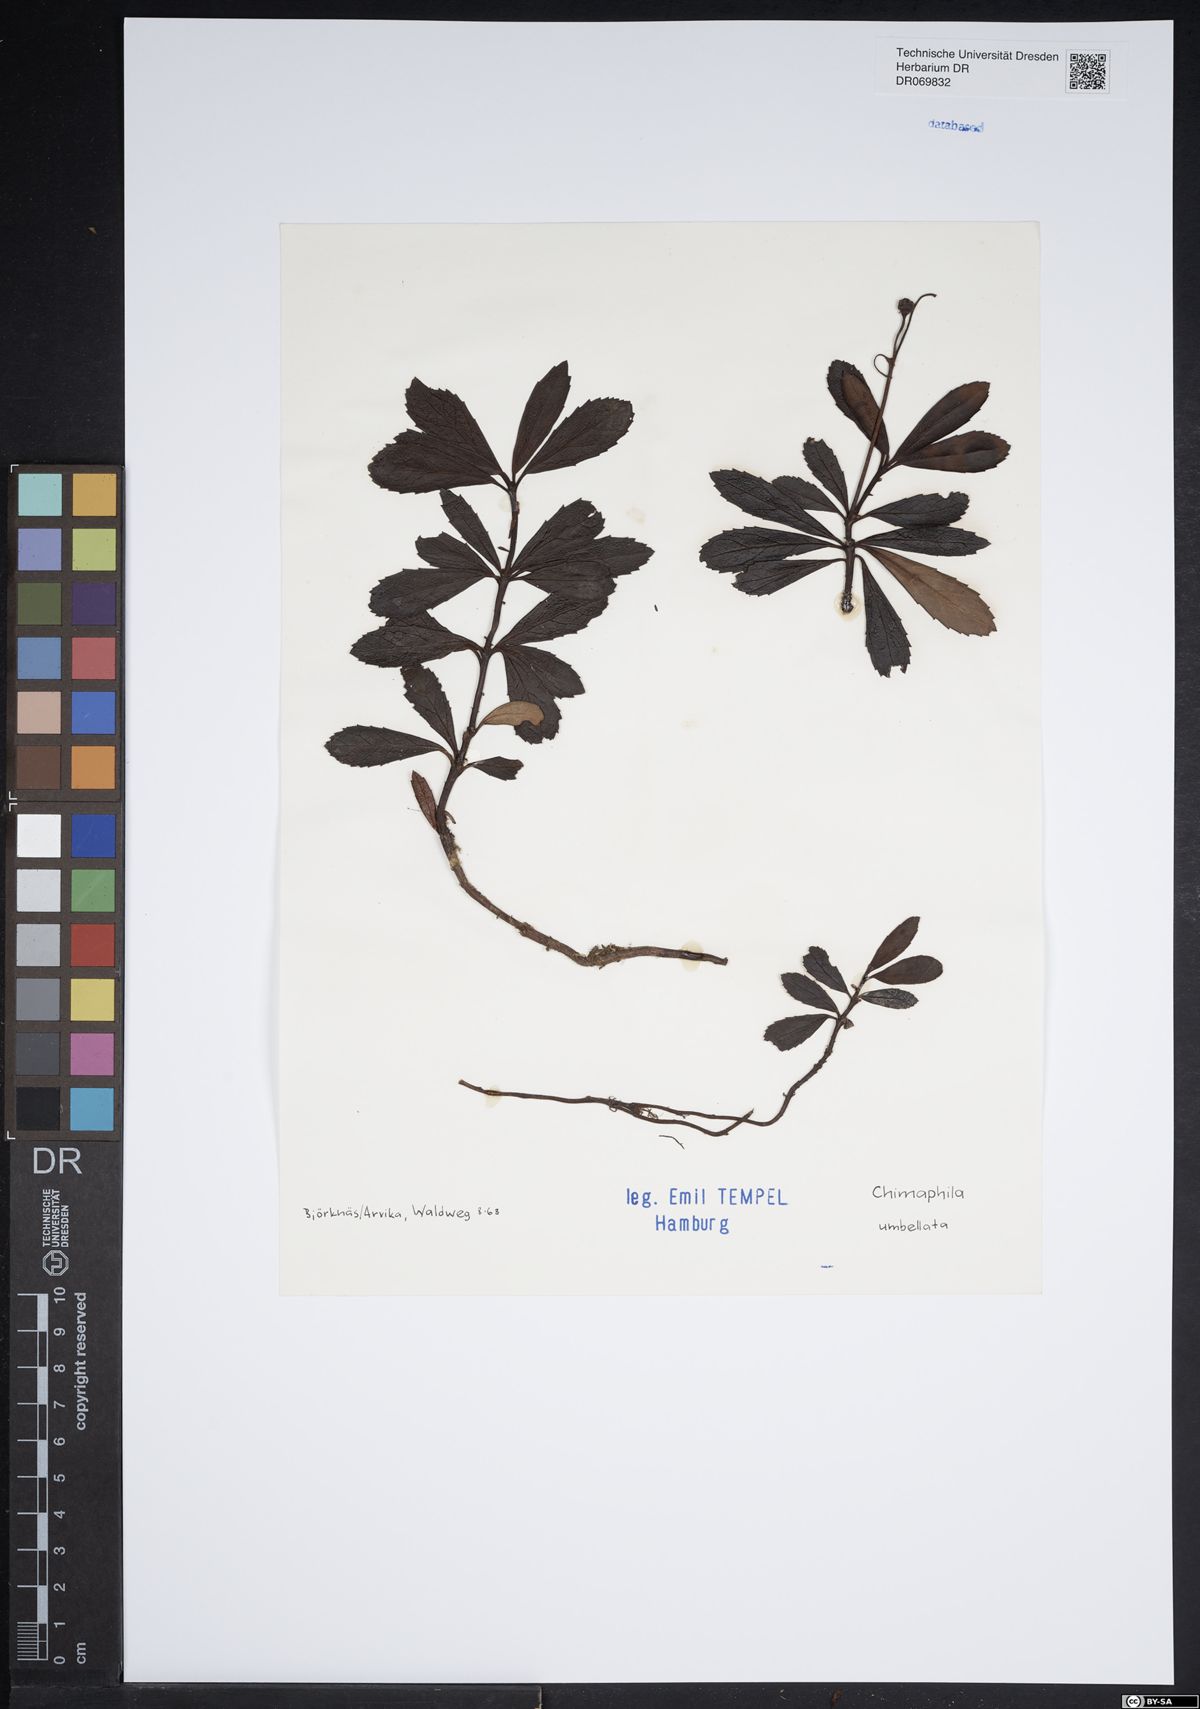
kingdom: Plantae
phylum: Tracheophyta
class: Magnoliopsida
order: Ericales
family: Ericaceae
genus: Chimaphila
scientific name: Chimaphila umbellata
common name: Pipsissewa
